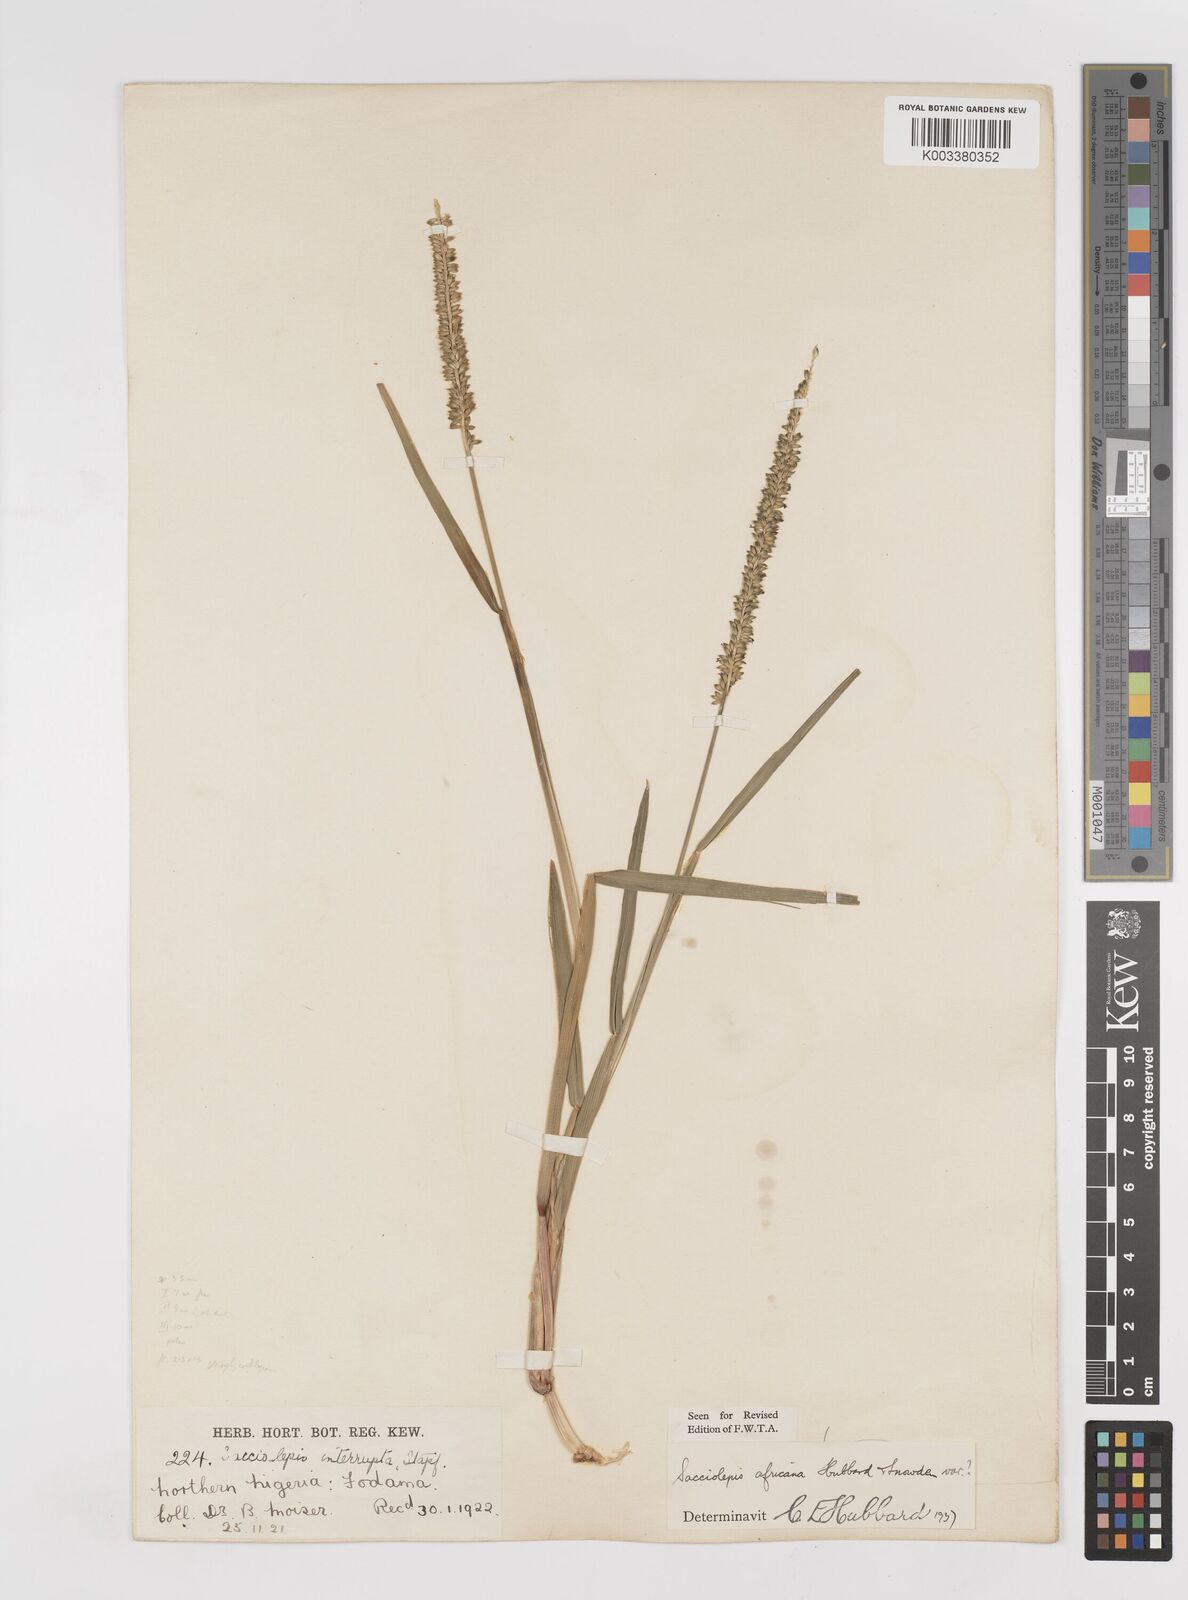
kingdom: Plantae
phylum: Tracheophyta
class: Liliopsida
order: Poales
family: Poaceae
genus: Sacciolepis
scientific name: Sacciolepis africana
